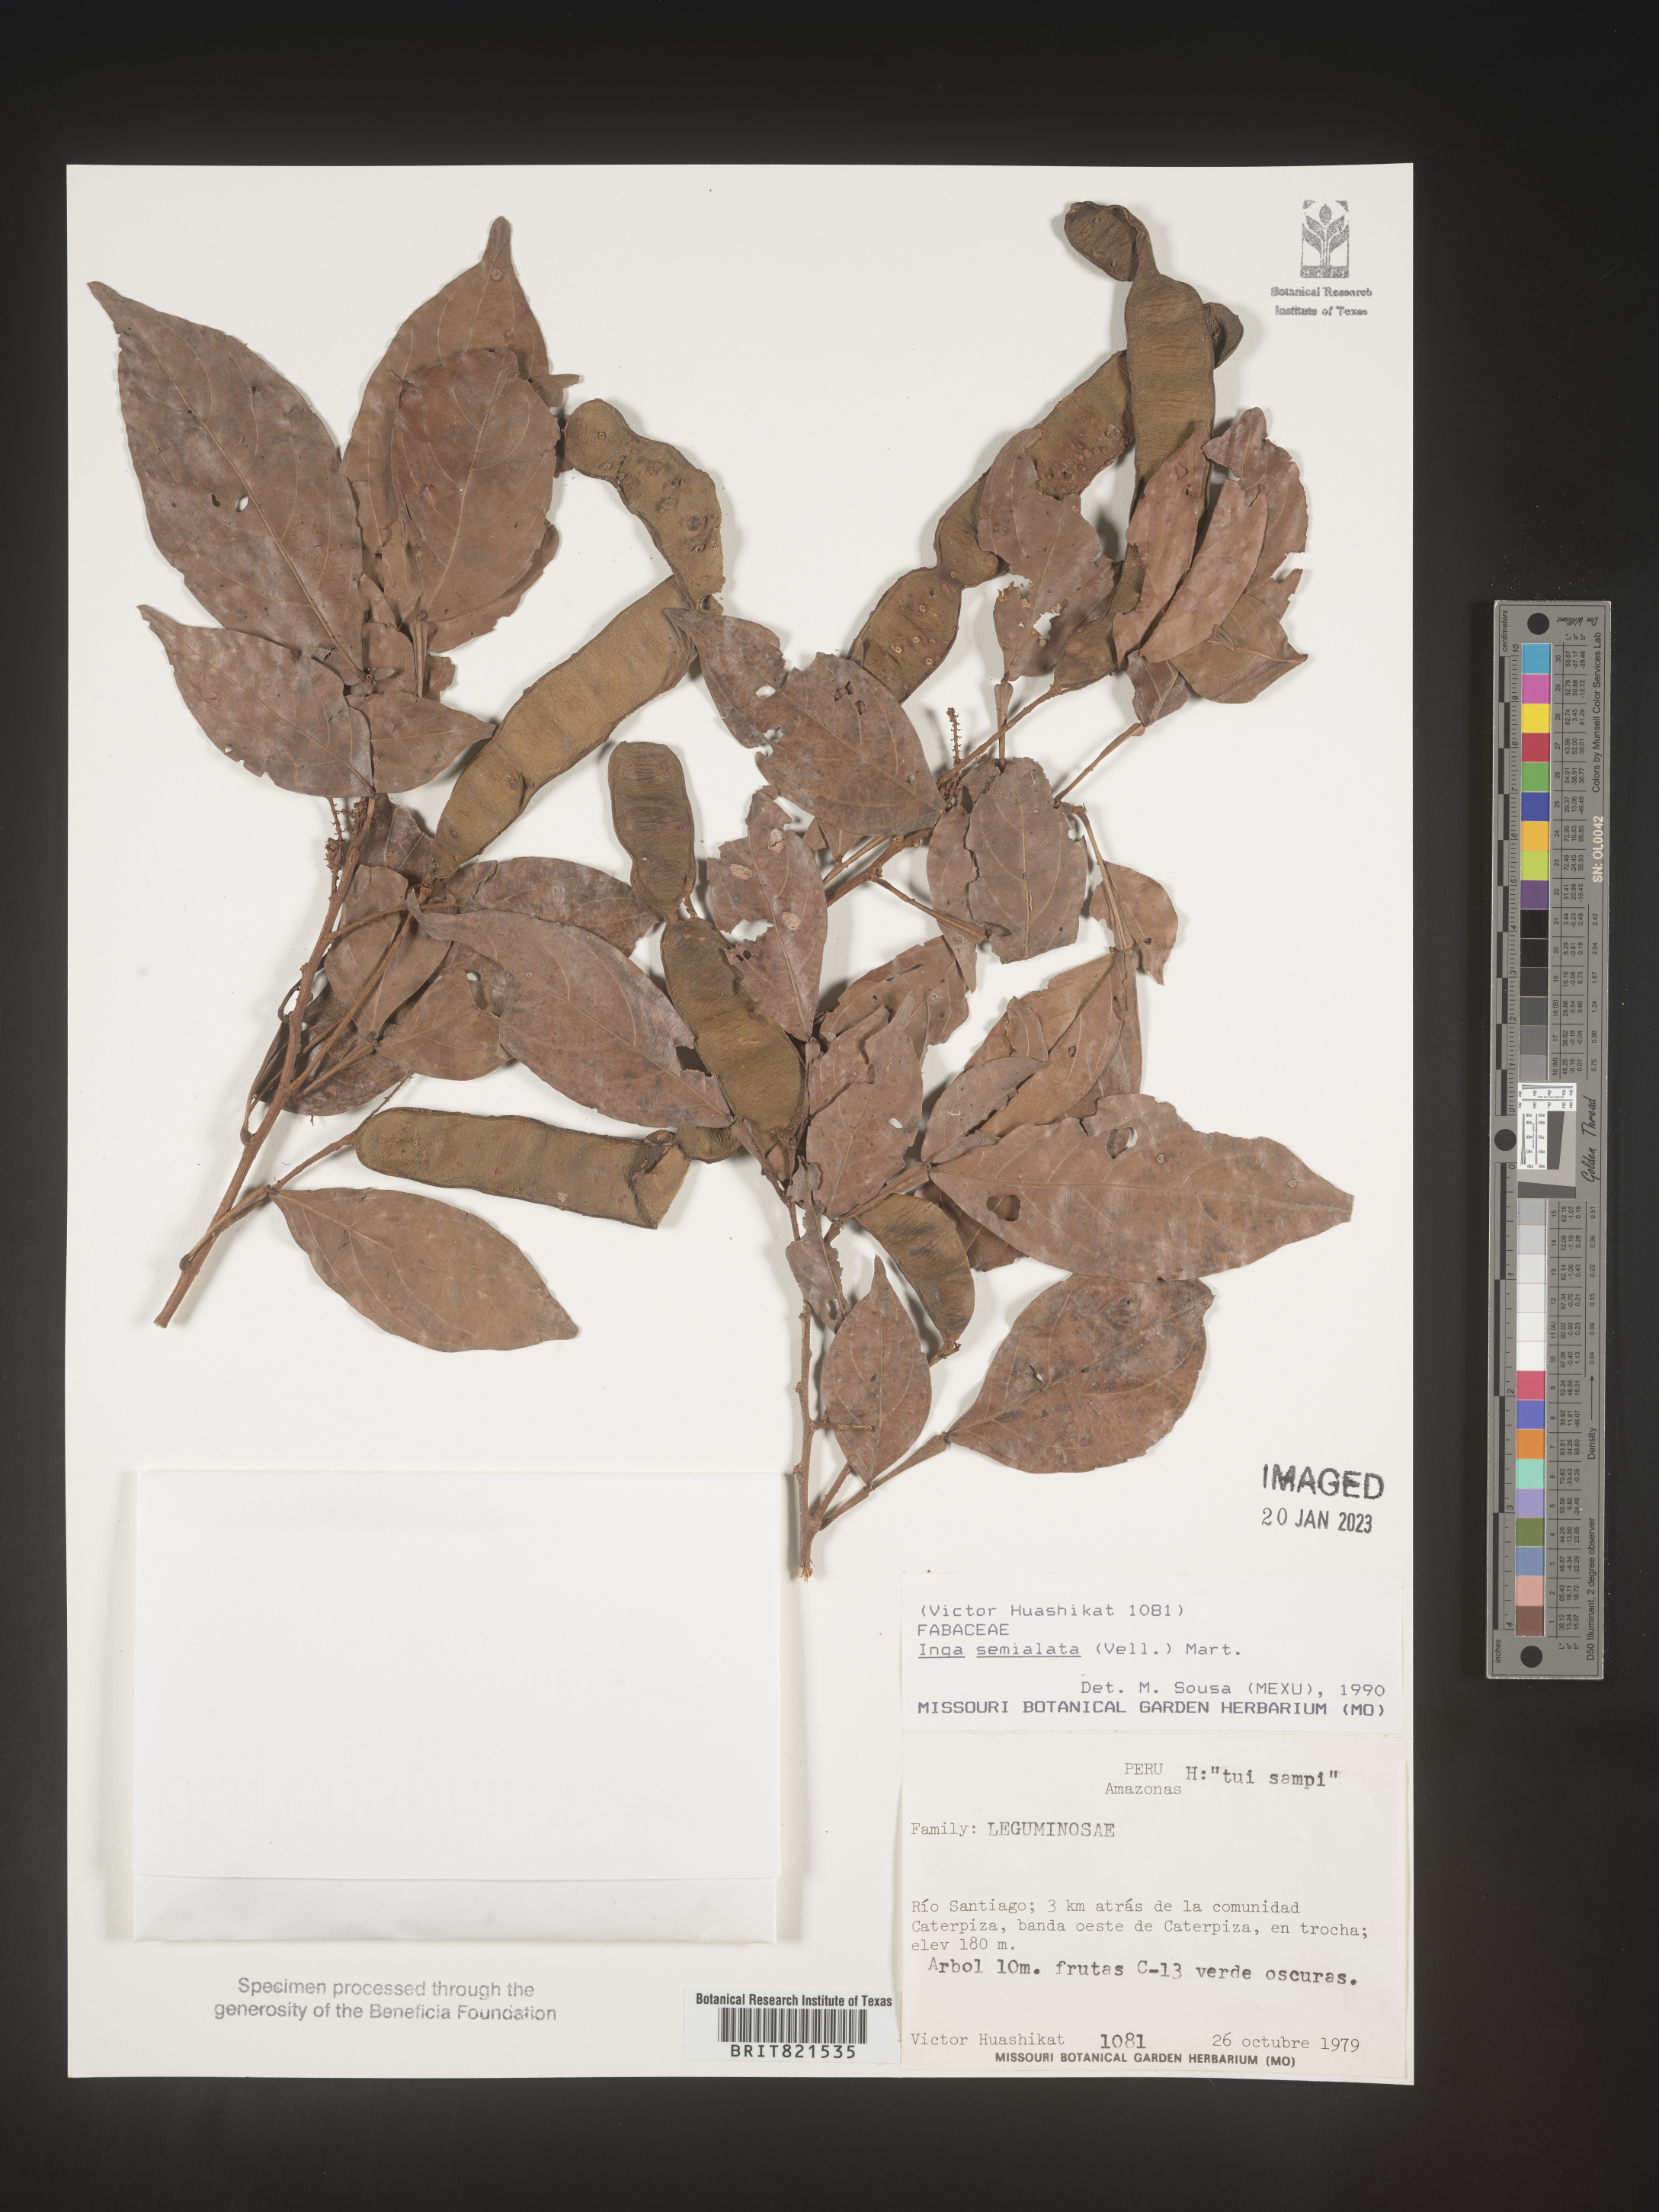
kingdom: Plantae
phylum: Tracheophyta
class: Magnoliopsida
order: Fabales
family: Fabaceae
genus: Inga
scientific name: Inga
